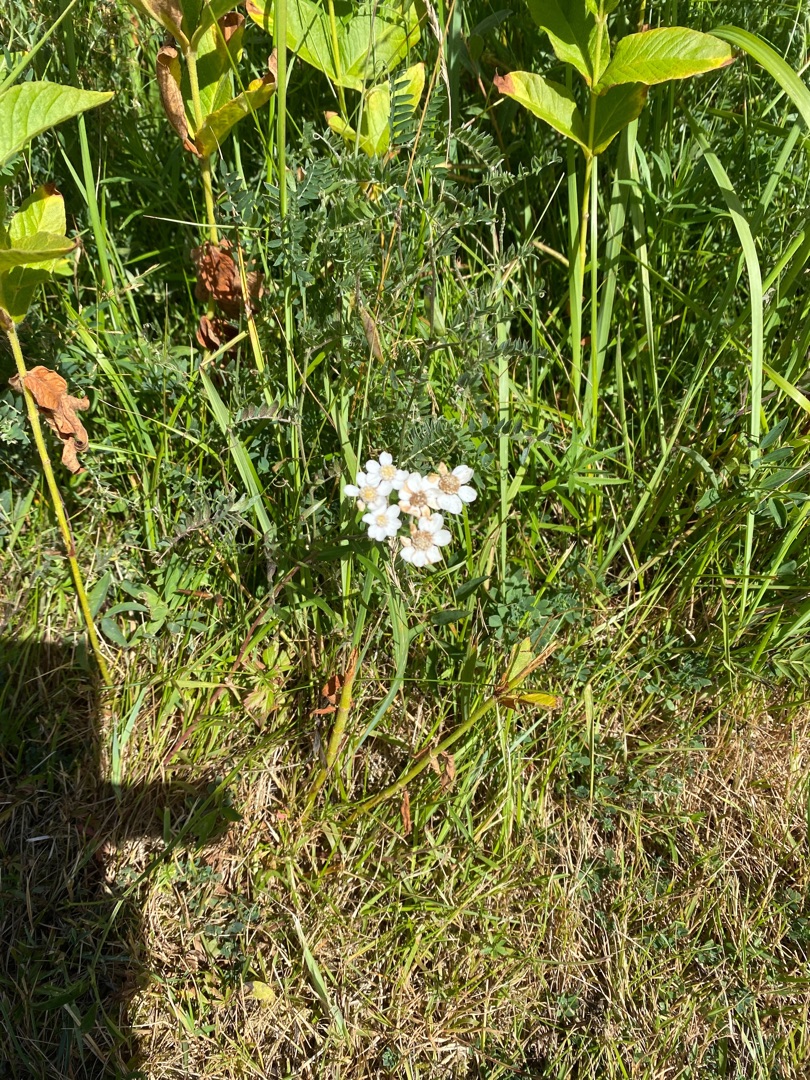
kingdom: Plantae
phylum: Tracheophyta
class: Magnoliopsida
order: Asterales
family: Asteraceae
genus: Achillea
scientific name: Achillea ptarmica
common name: Nyse-røllike
